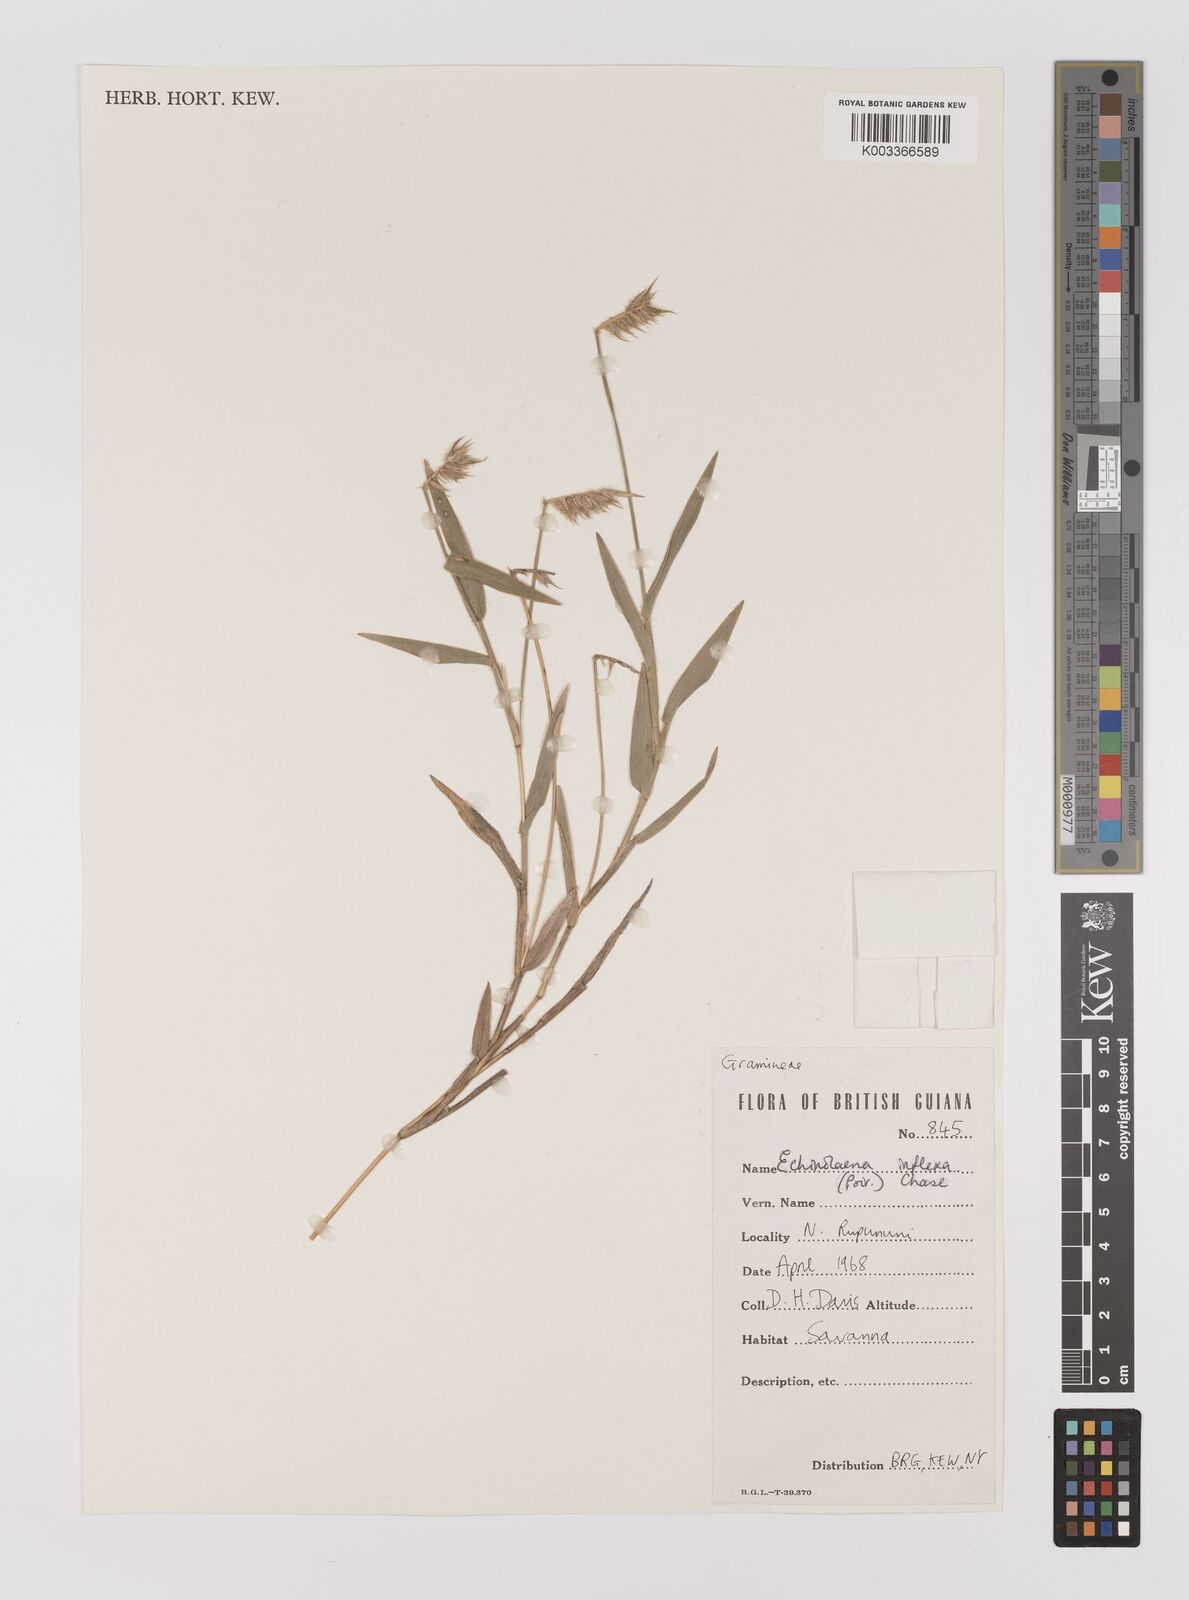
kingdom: Plantae
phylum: Tracheophyta
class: Liliopsida
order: Poales
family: Poaceae
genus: Echinolaena
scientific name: Echinolaena inflexa
